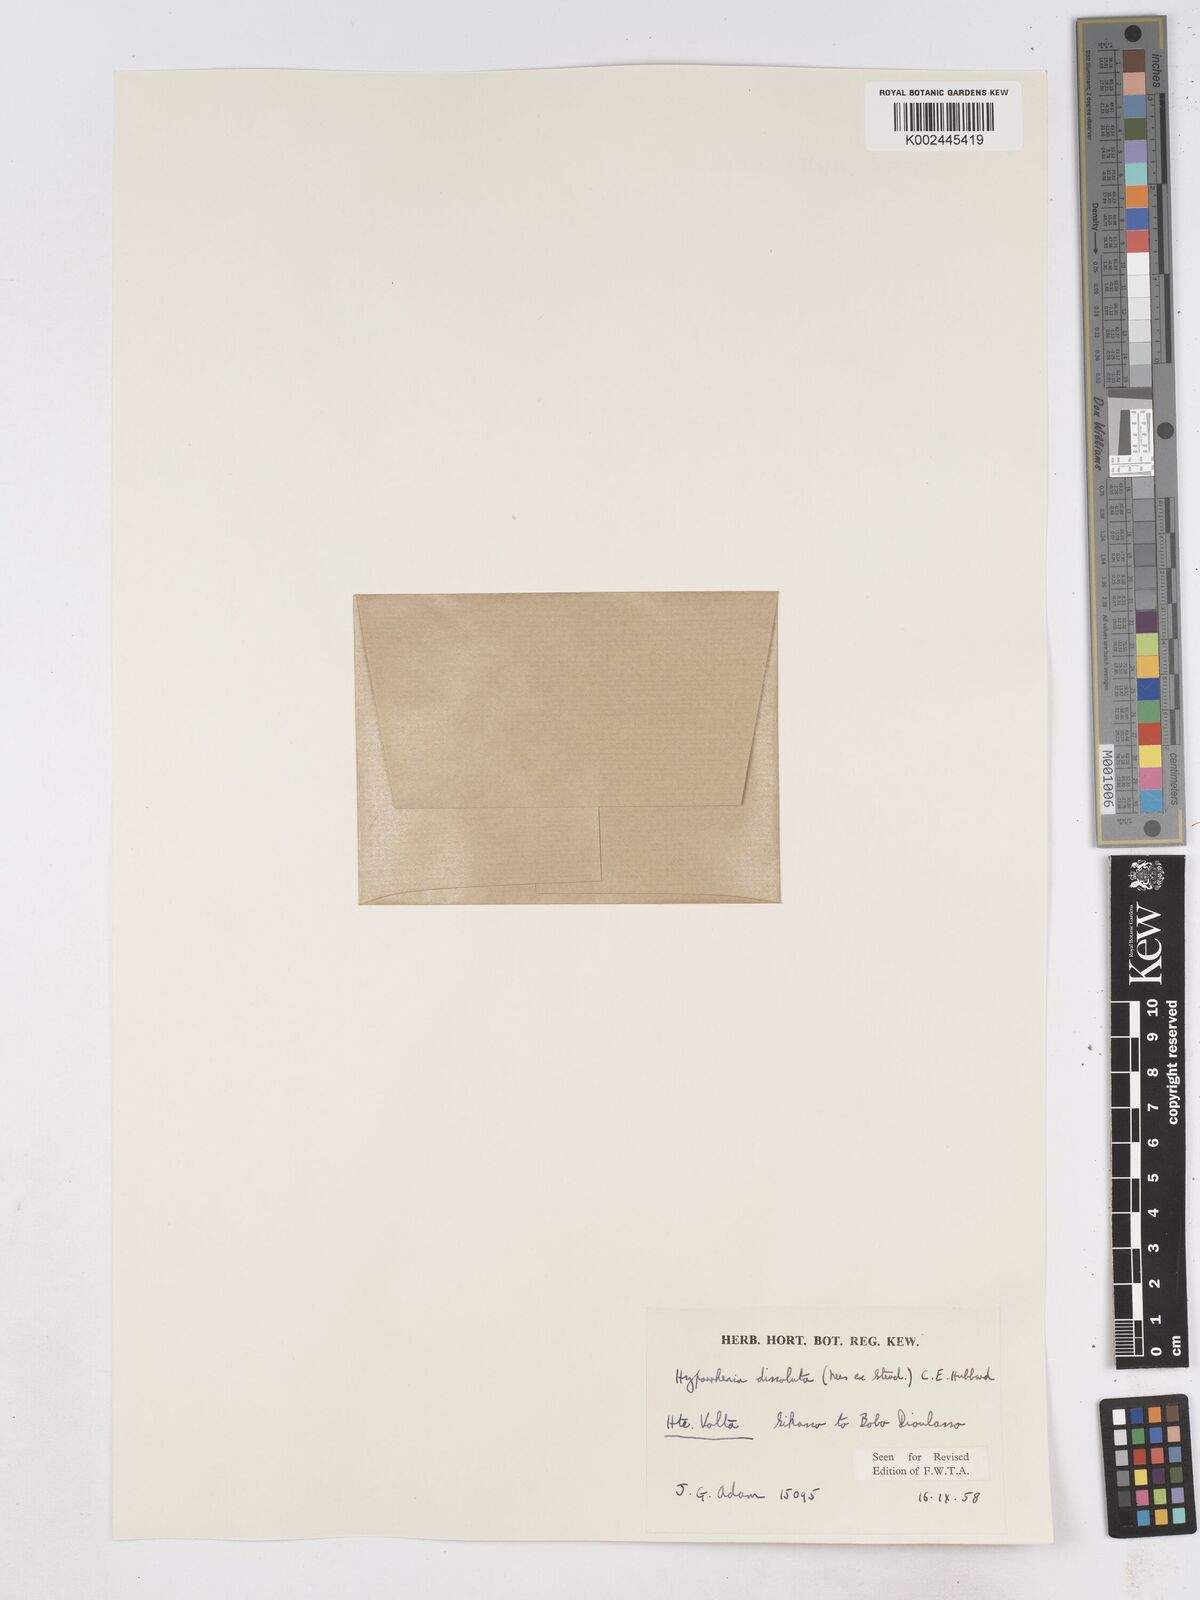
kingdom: Plantae
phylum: Tracheophyta
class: Liliopsida
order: Poales
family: Poaceae
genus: Hyperthelia
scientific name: Hyperthelia dissoluta
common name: Yellow thatching grass
